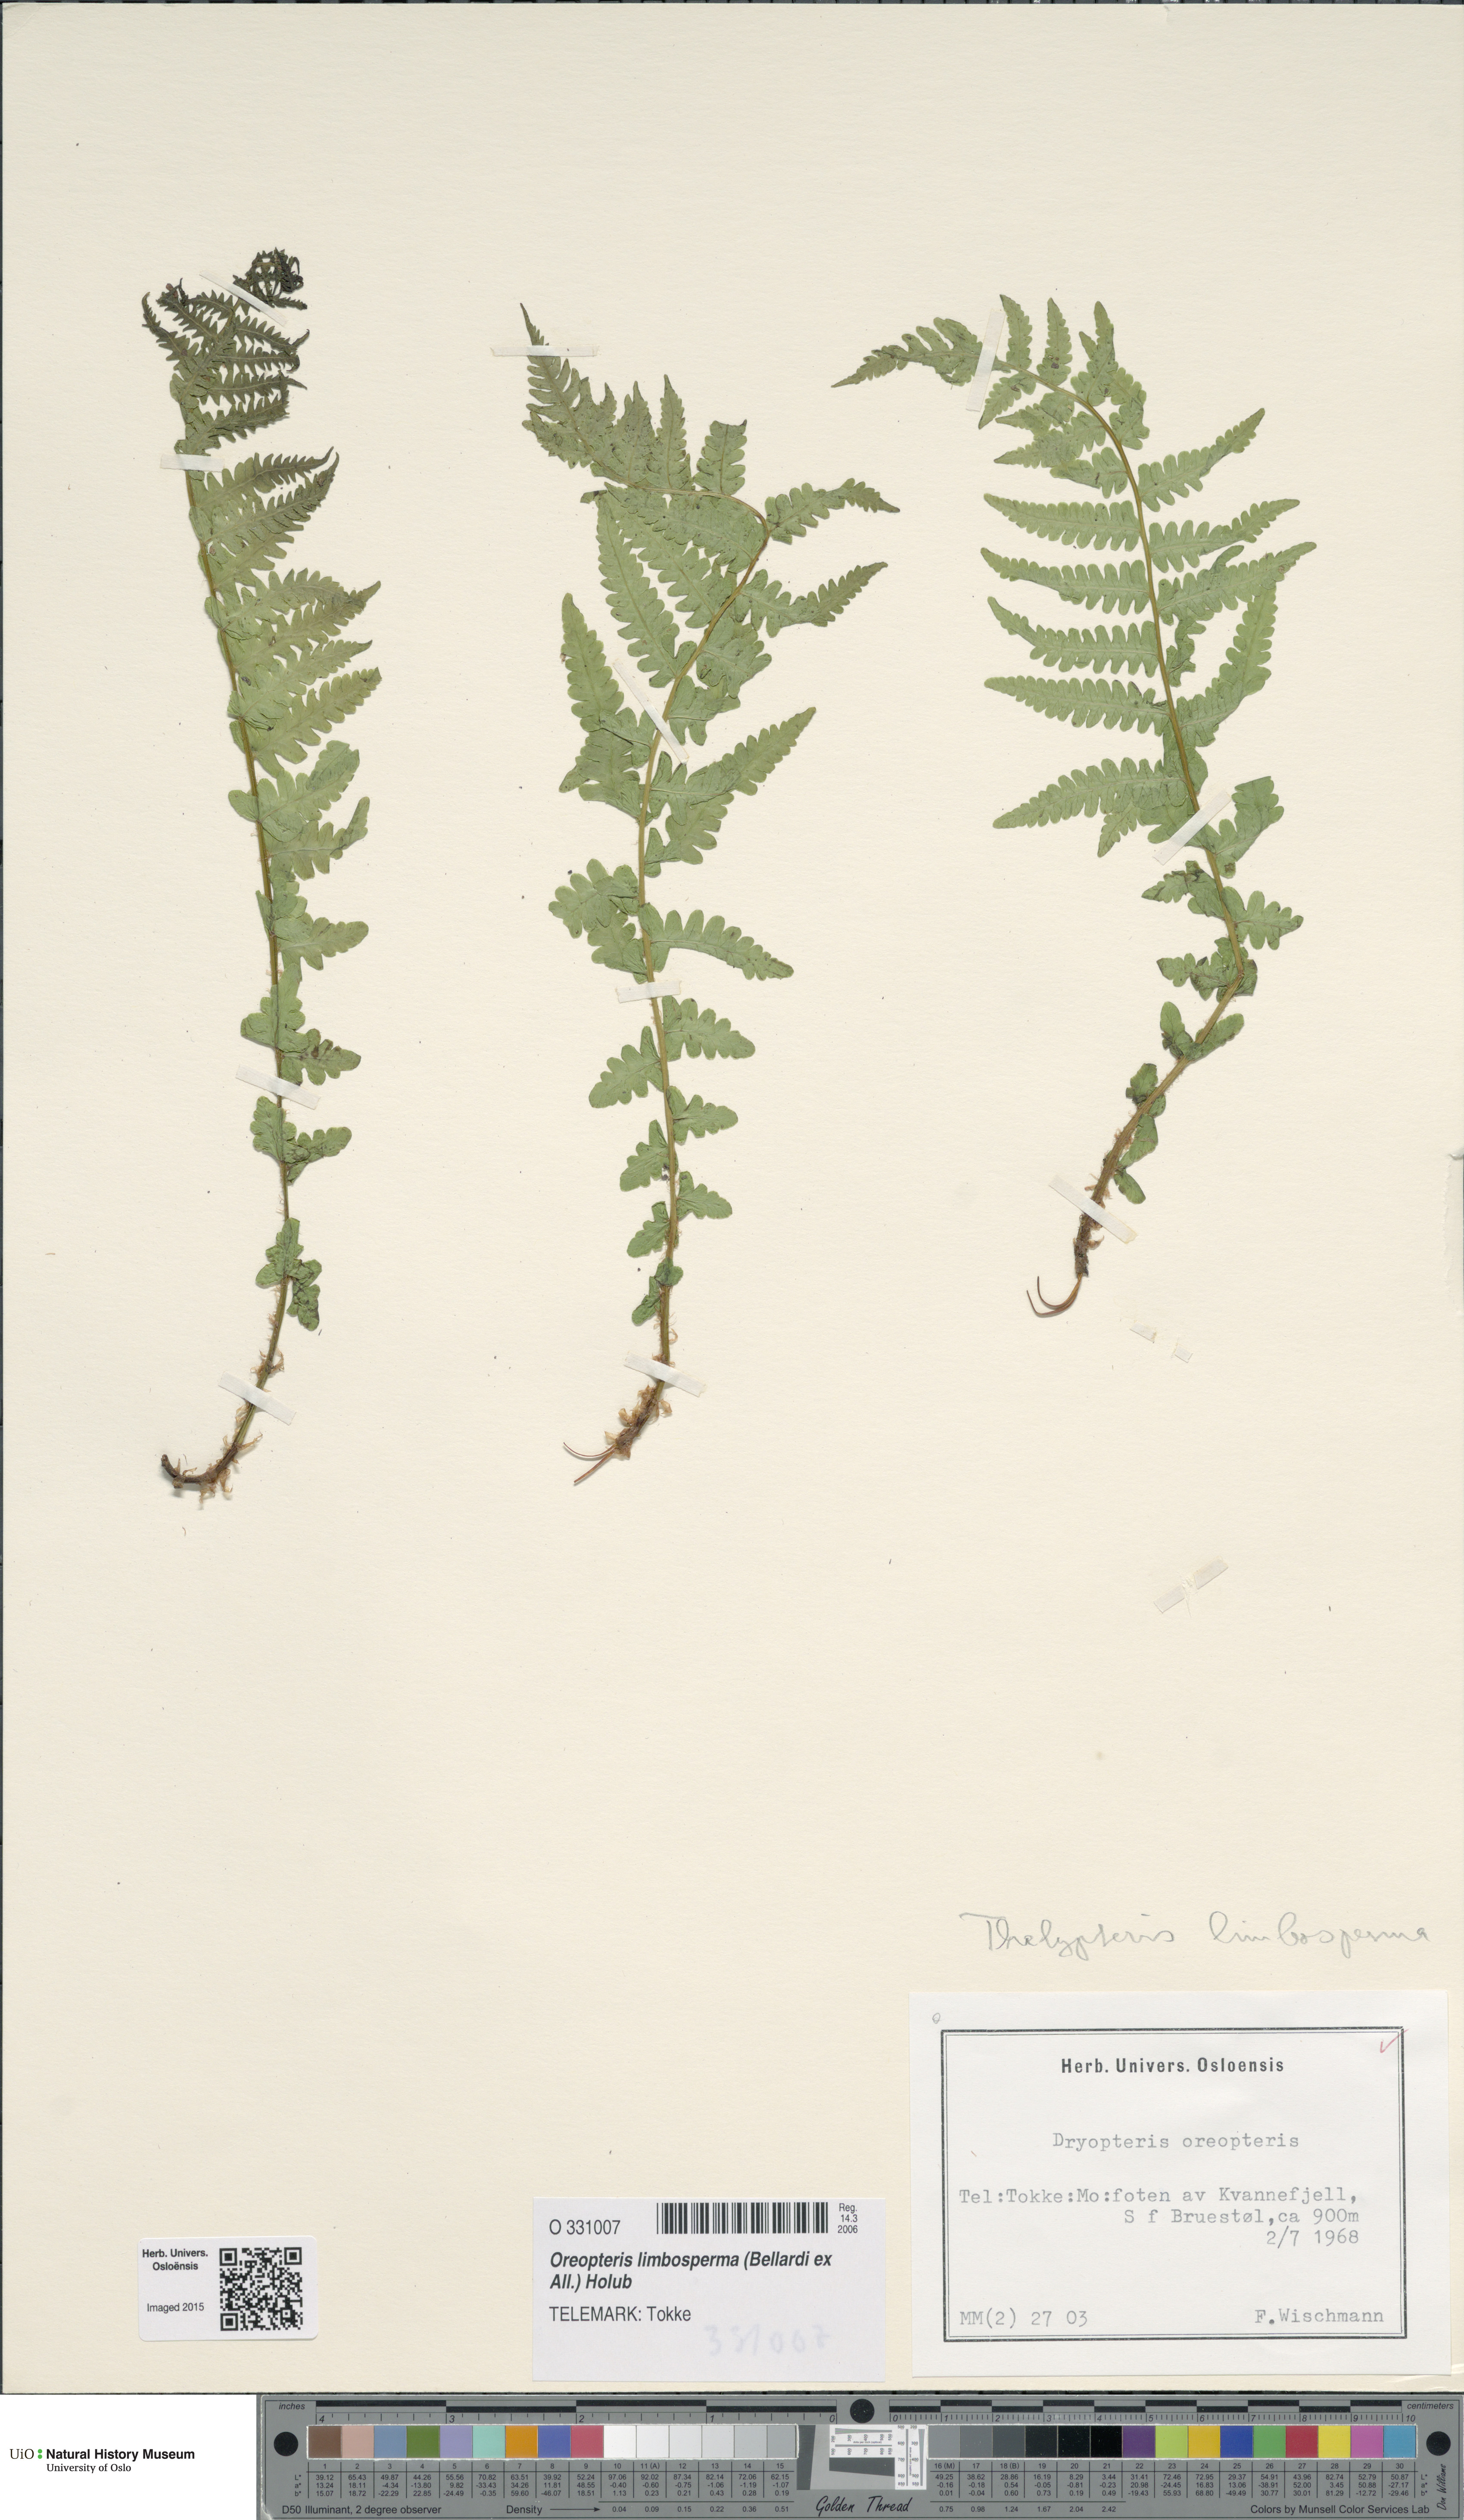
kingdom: Plantae
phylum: Tracheophyta
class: Polypodiopsida
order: Polypodiales
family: Thelypteridaceae
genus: Oreopteris
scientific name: Oreopteris limbosperma
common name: Lemon-scented fern
